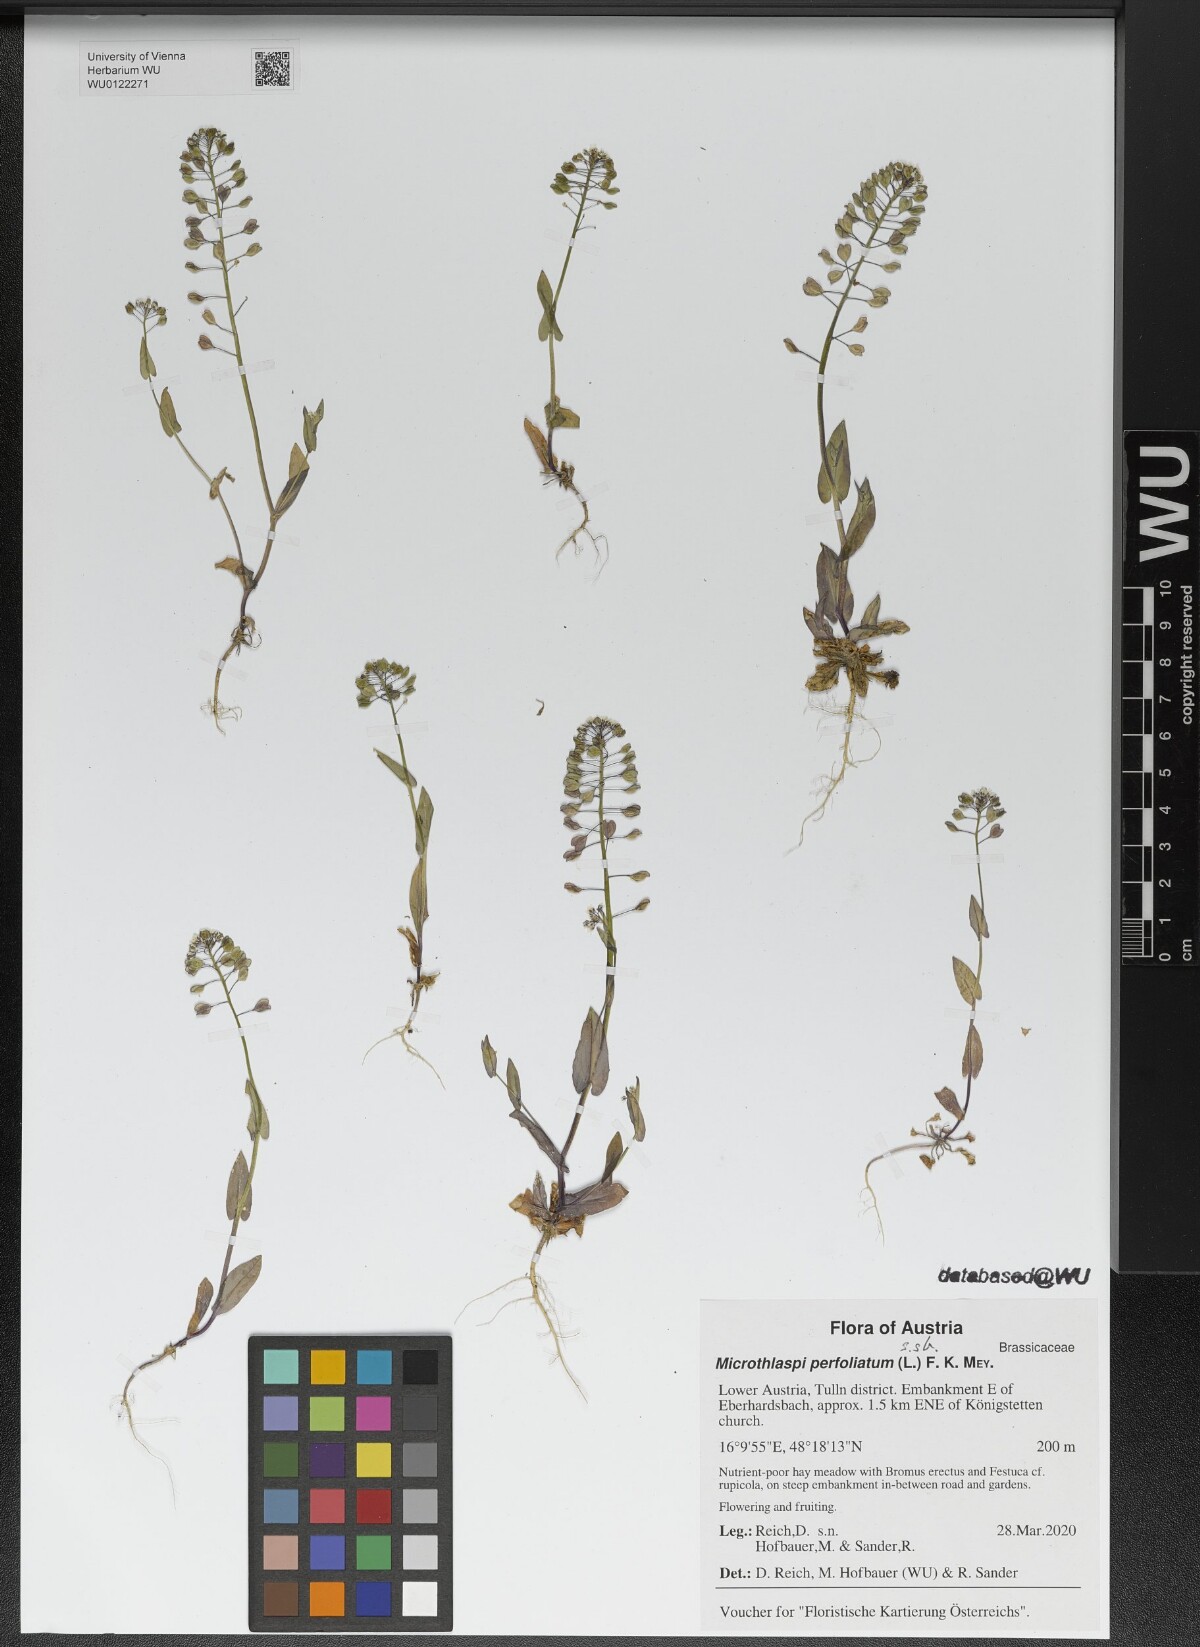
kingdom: Plantae
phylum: Tracheophyta
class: Magnoliopsida
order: Brassicales
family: Brassicaceae
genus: Noccaea
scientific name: Noccaea perfoliata
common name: Perfoliate pennycress
